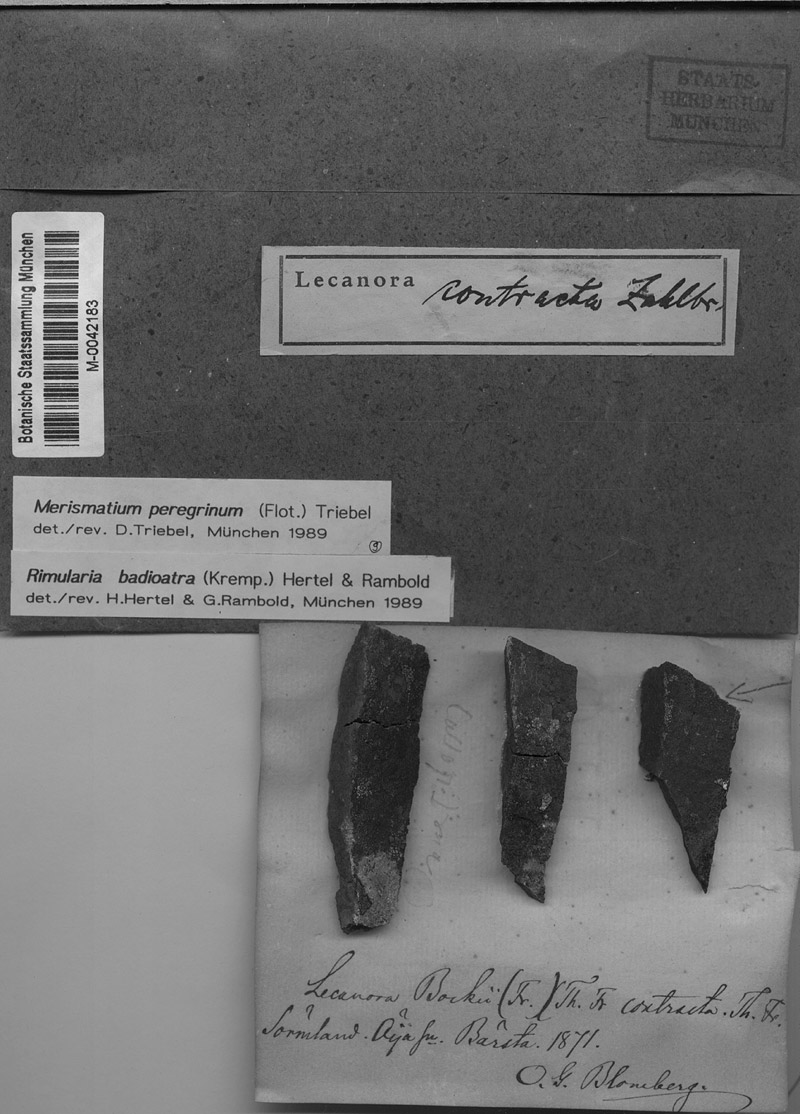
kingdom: Fungi
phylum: Ascomycota
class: Eurotiomycetes
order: Verrucariales
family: Verrucariaceae
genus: Merismatium
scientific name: Merismatium peregrinum
